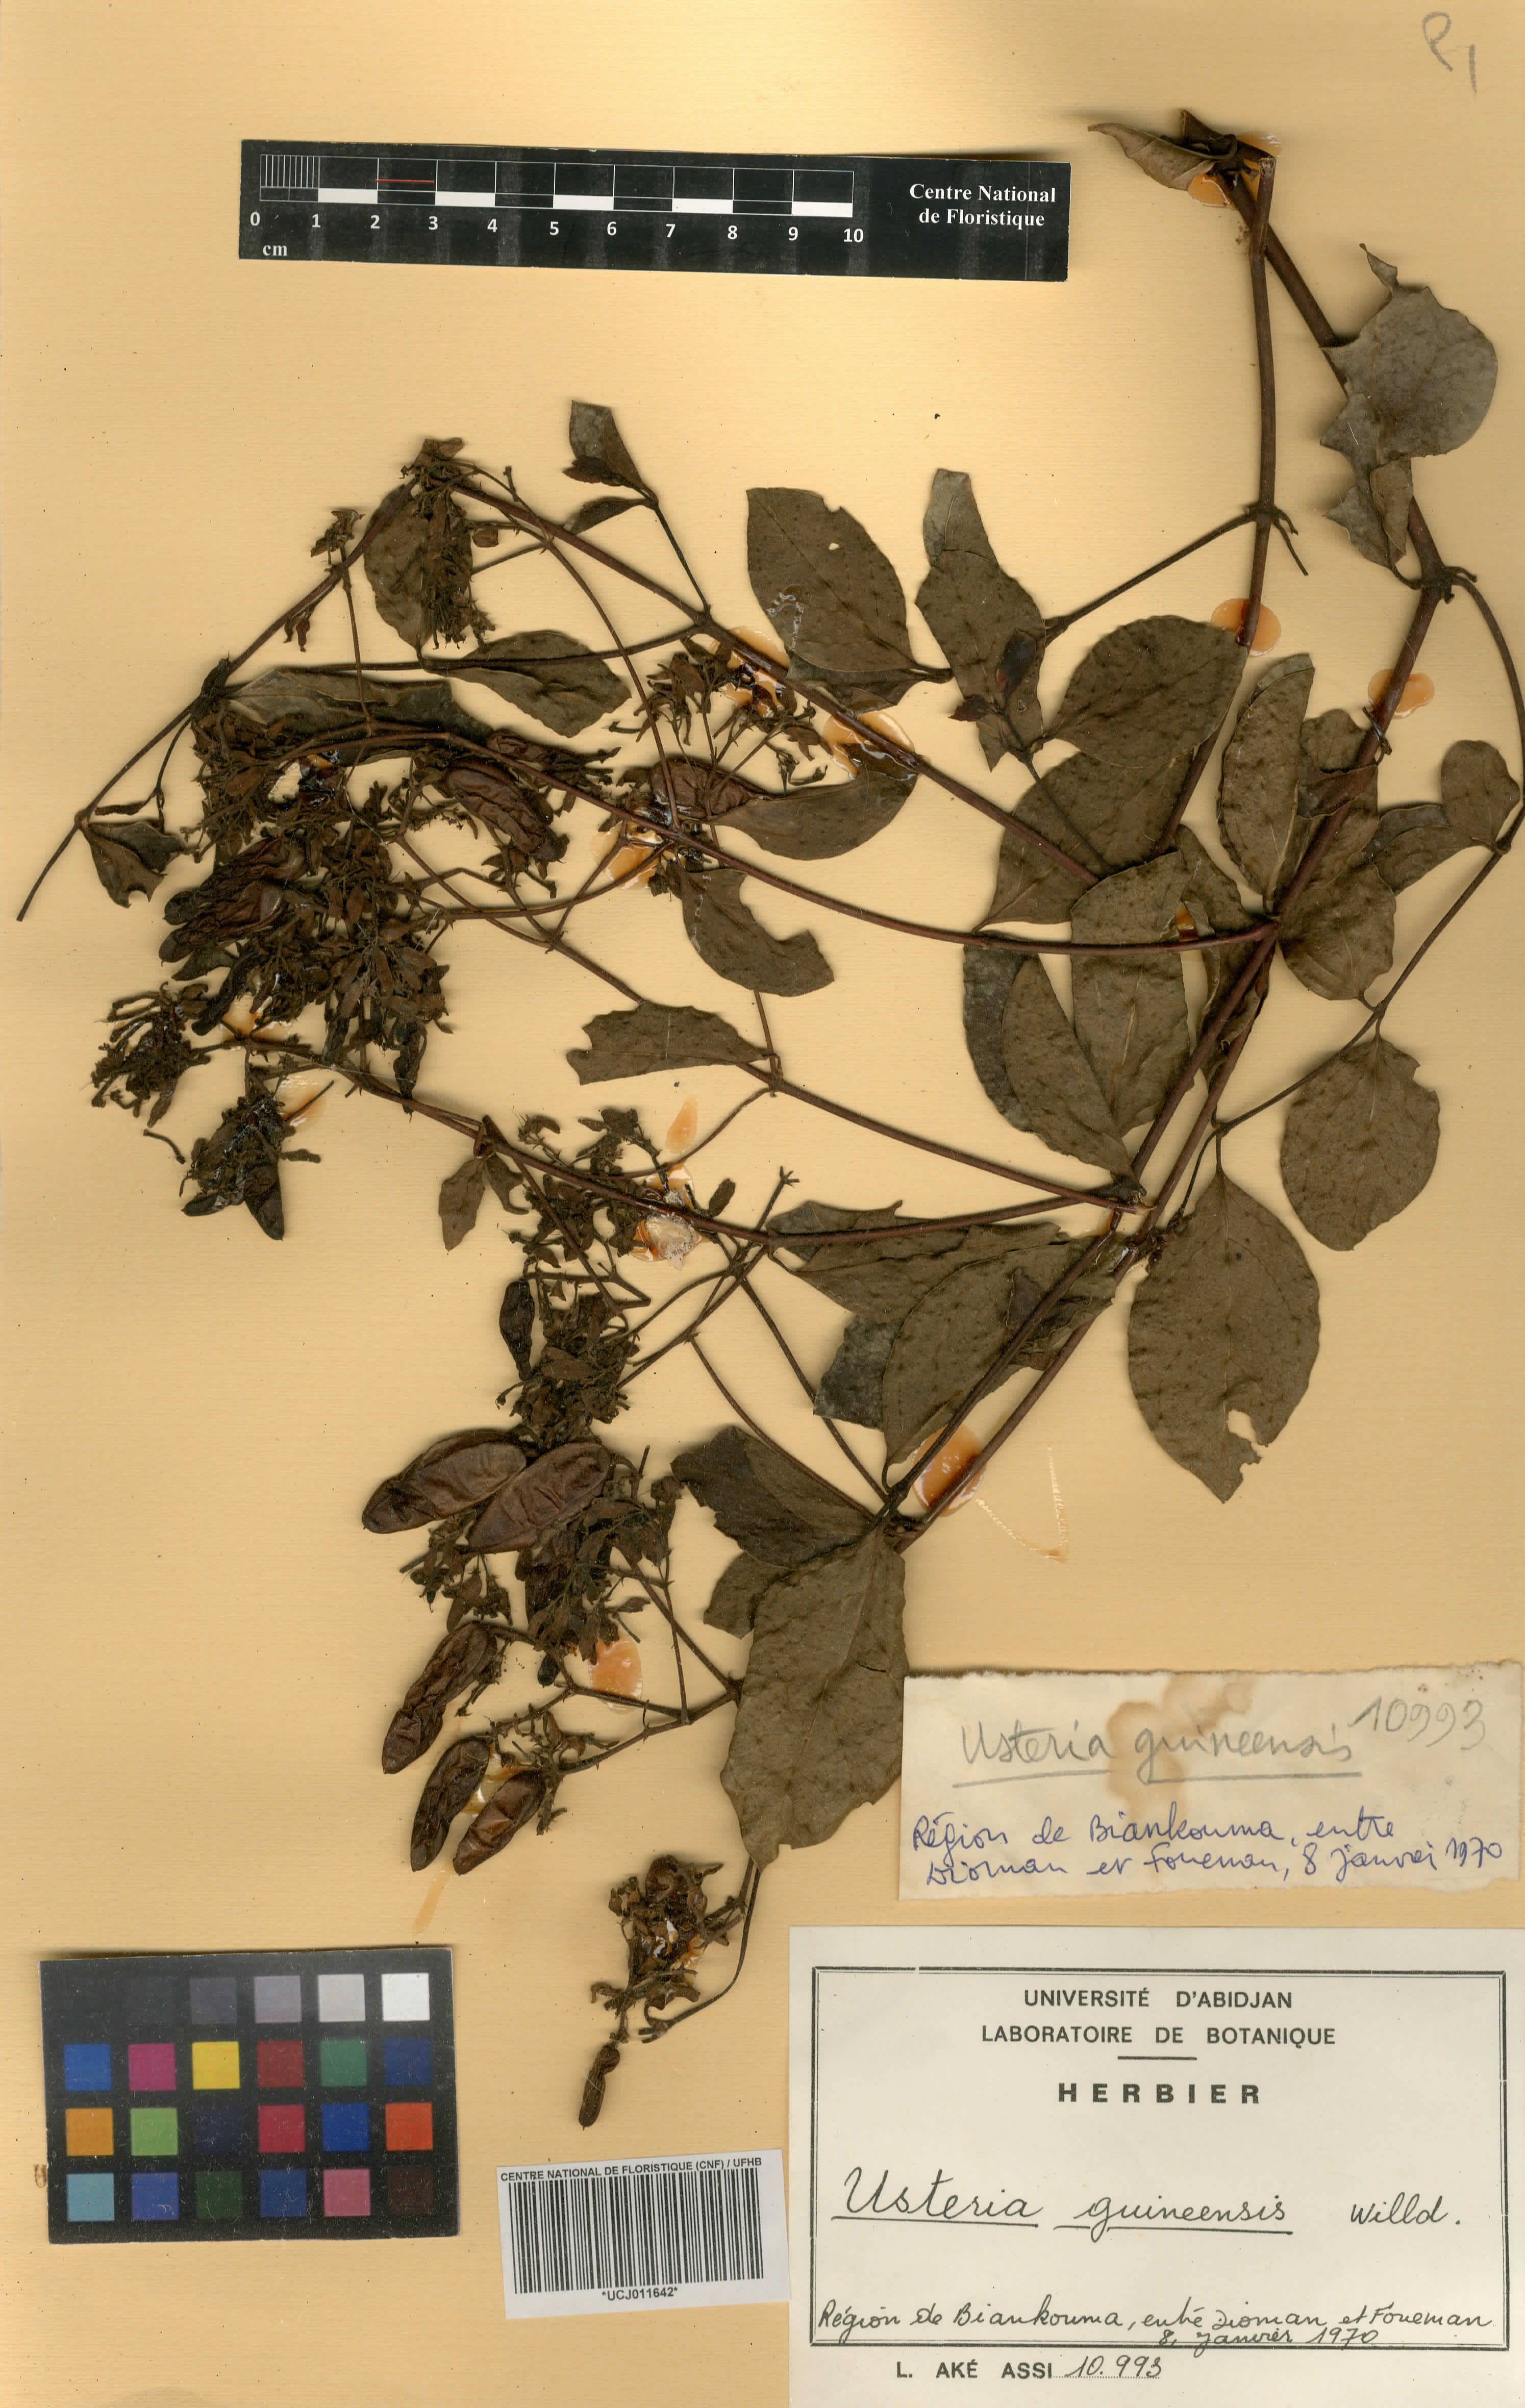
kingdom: Plantae
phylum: Tracheophyta
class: Magnoliopsida
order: Gentianales
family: Loganiaceae
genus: Usteria
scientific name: Usteria guineensis
